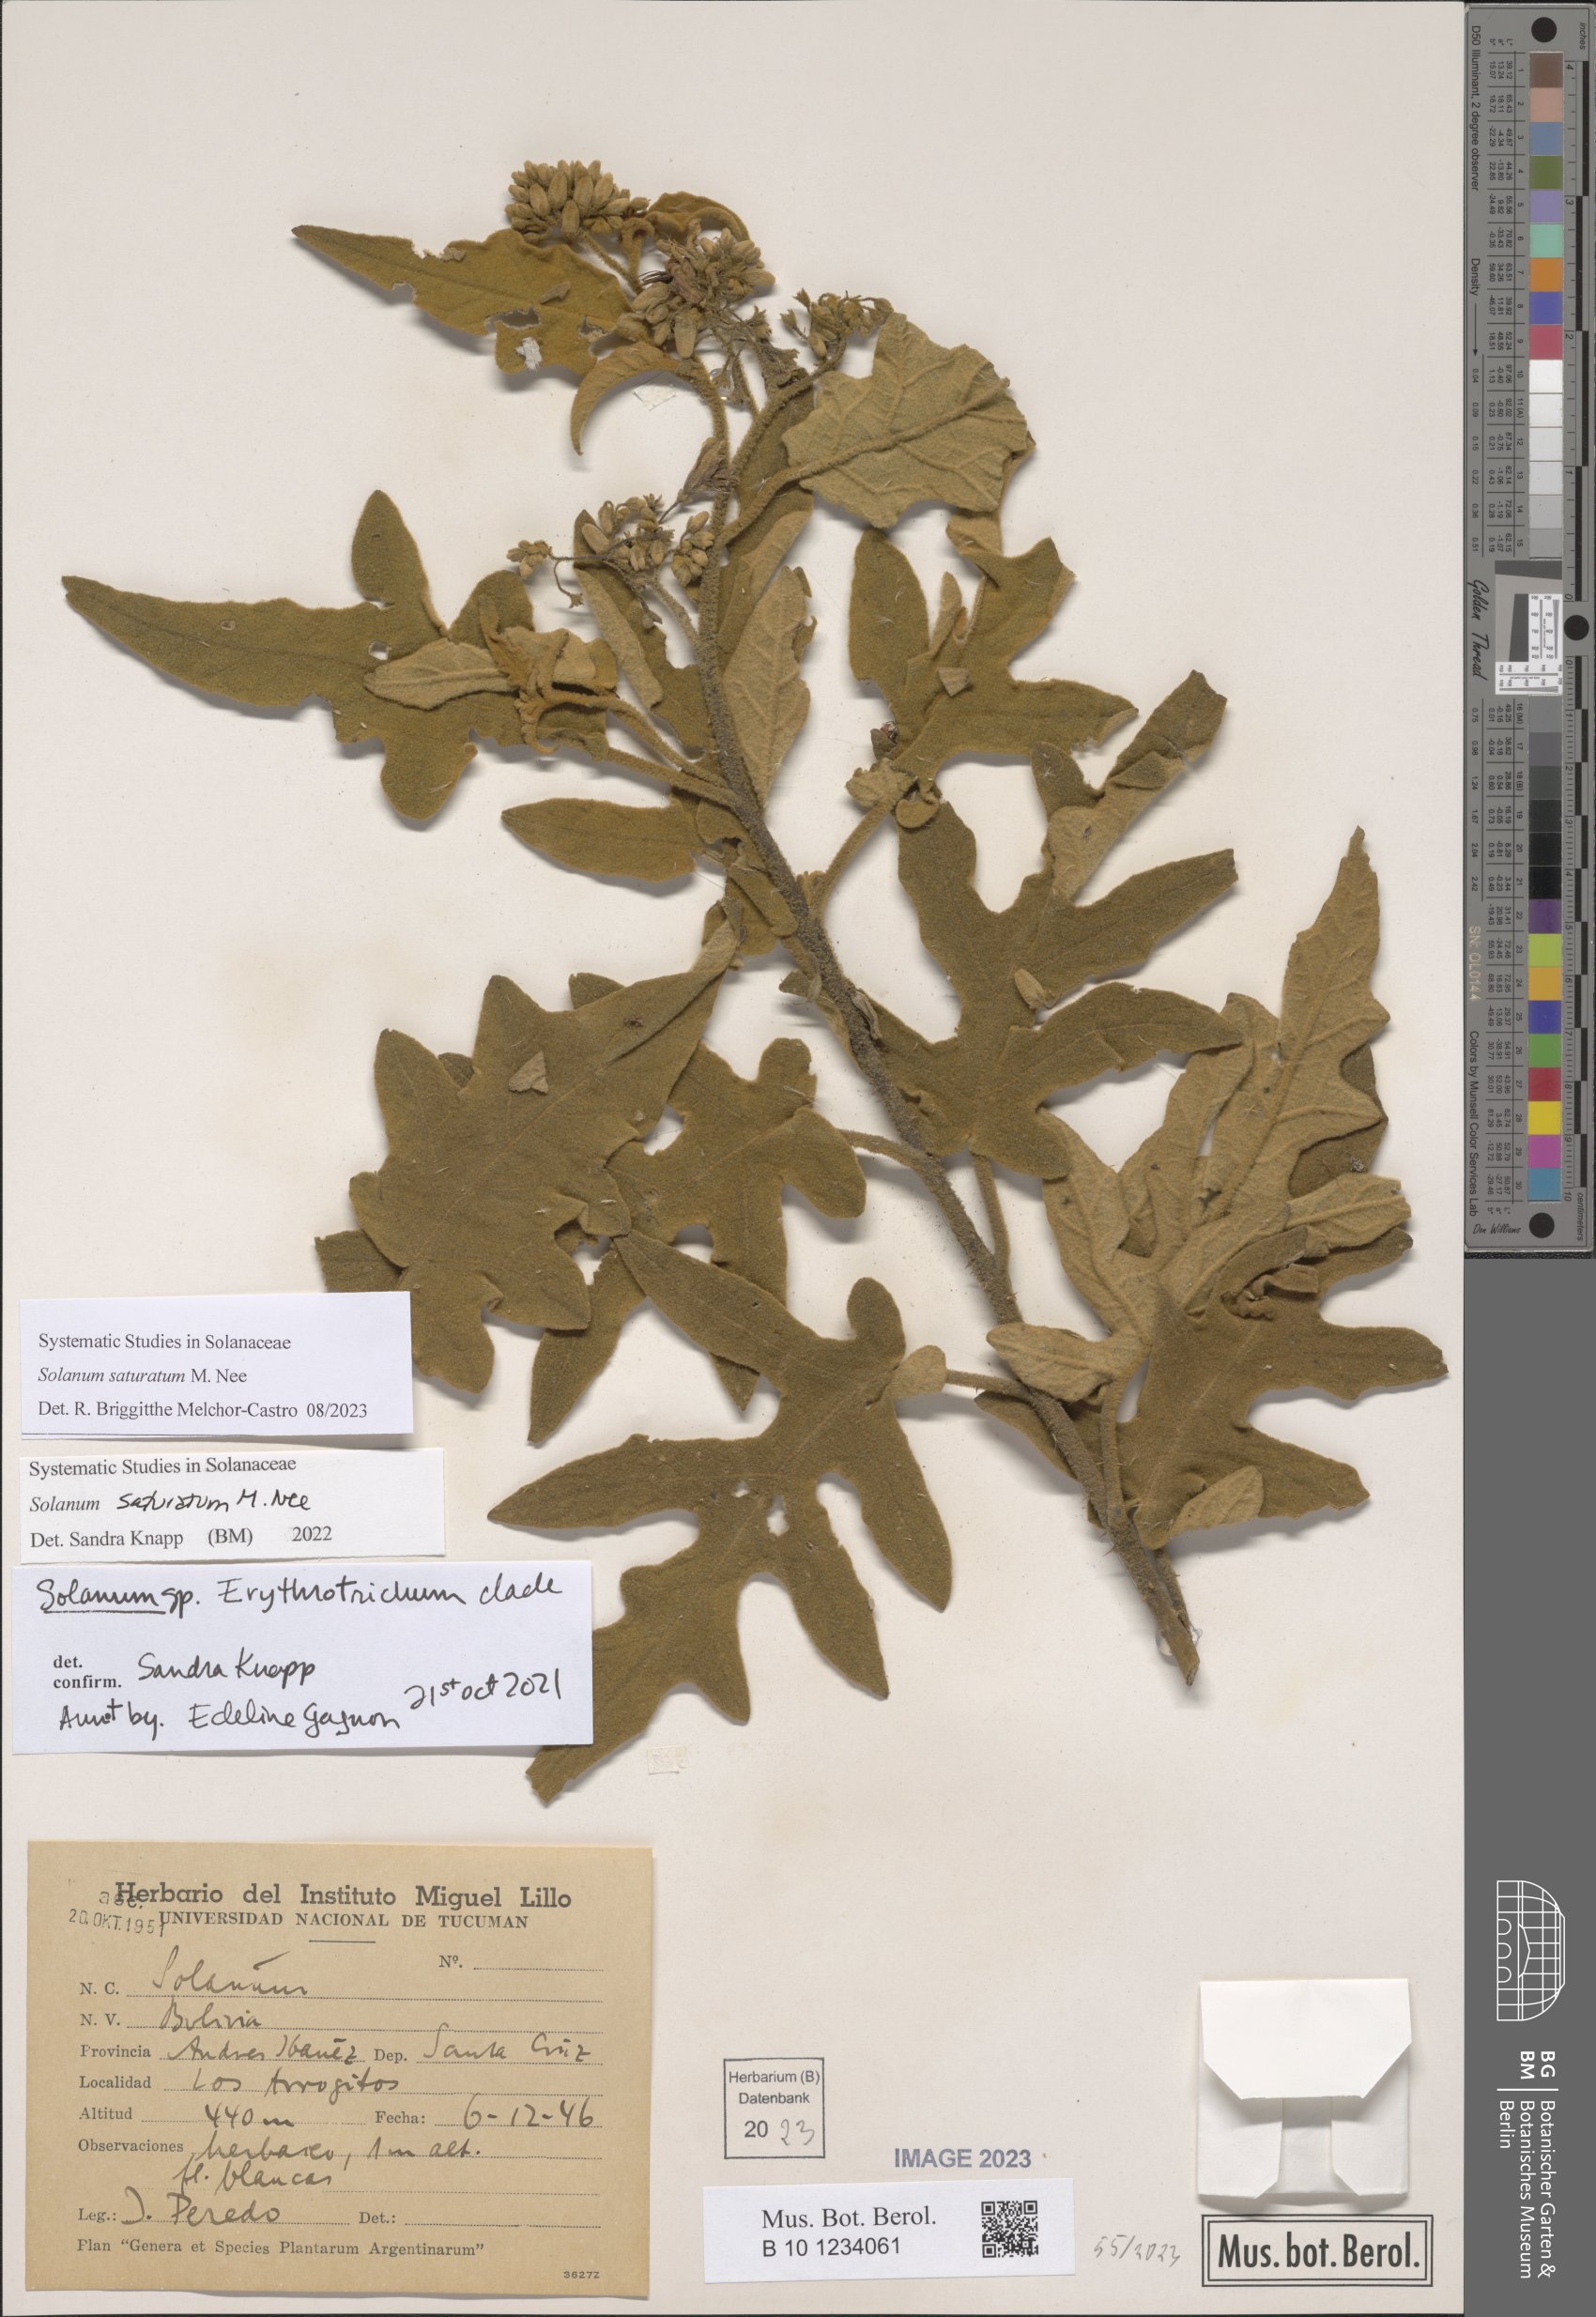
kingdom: Plantae
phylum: Tracheophyta
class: Magnoliopsida
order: Solanales
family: Solanaceae
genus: Solanum
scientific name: Solanum saturatum
